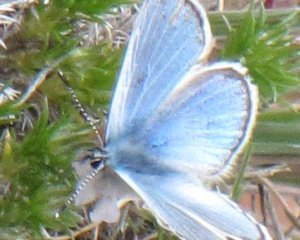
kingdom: Animalia
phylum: Arthropoda
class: Insecta
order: Lepidoptera
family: Lycaenidae
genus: Glaucopsyche
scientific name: Glaucopsyche lygdamus
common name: Silvery Blue
